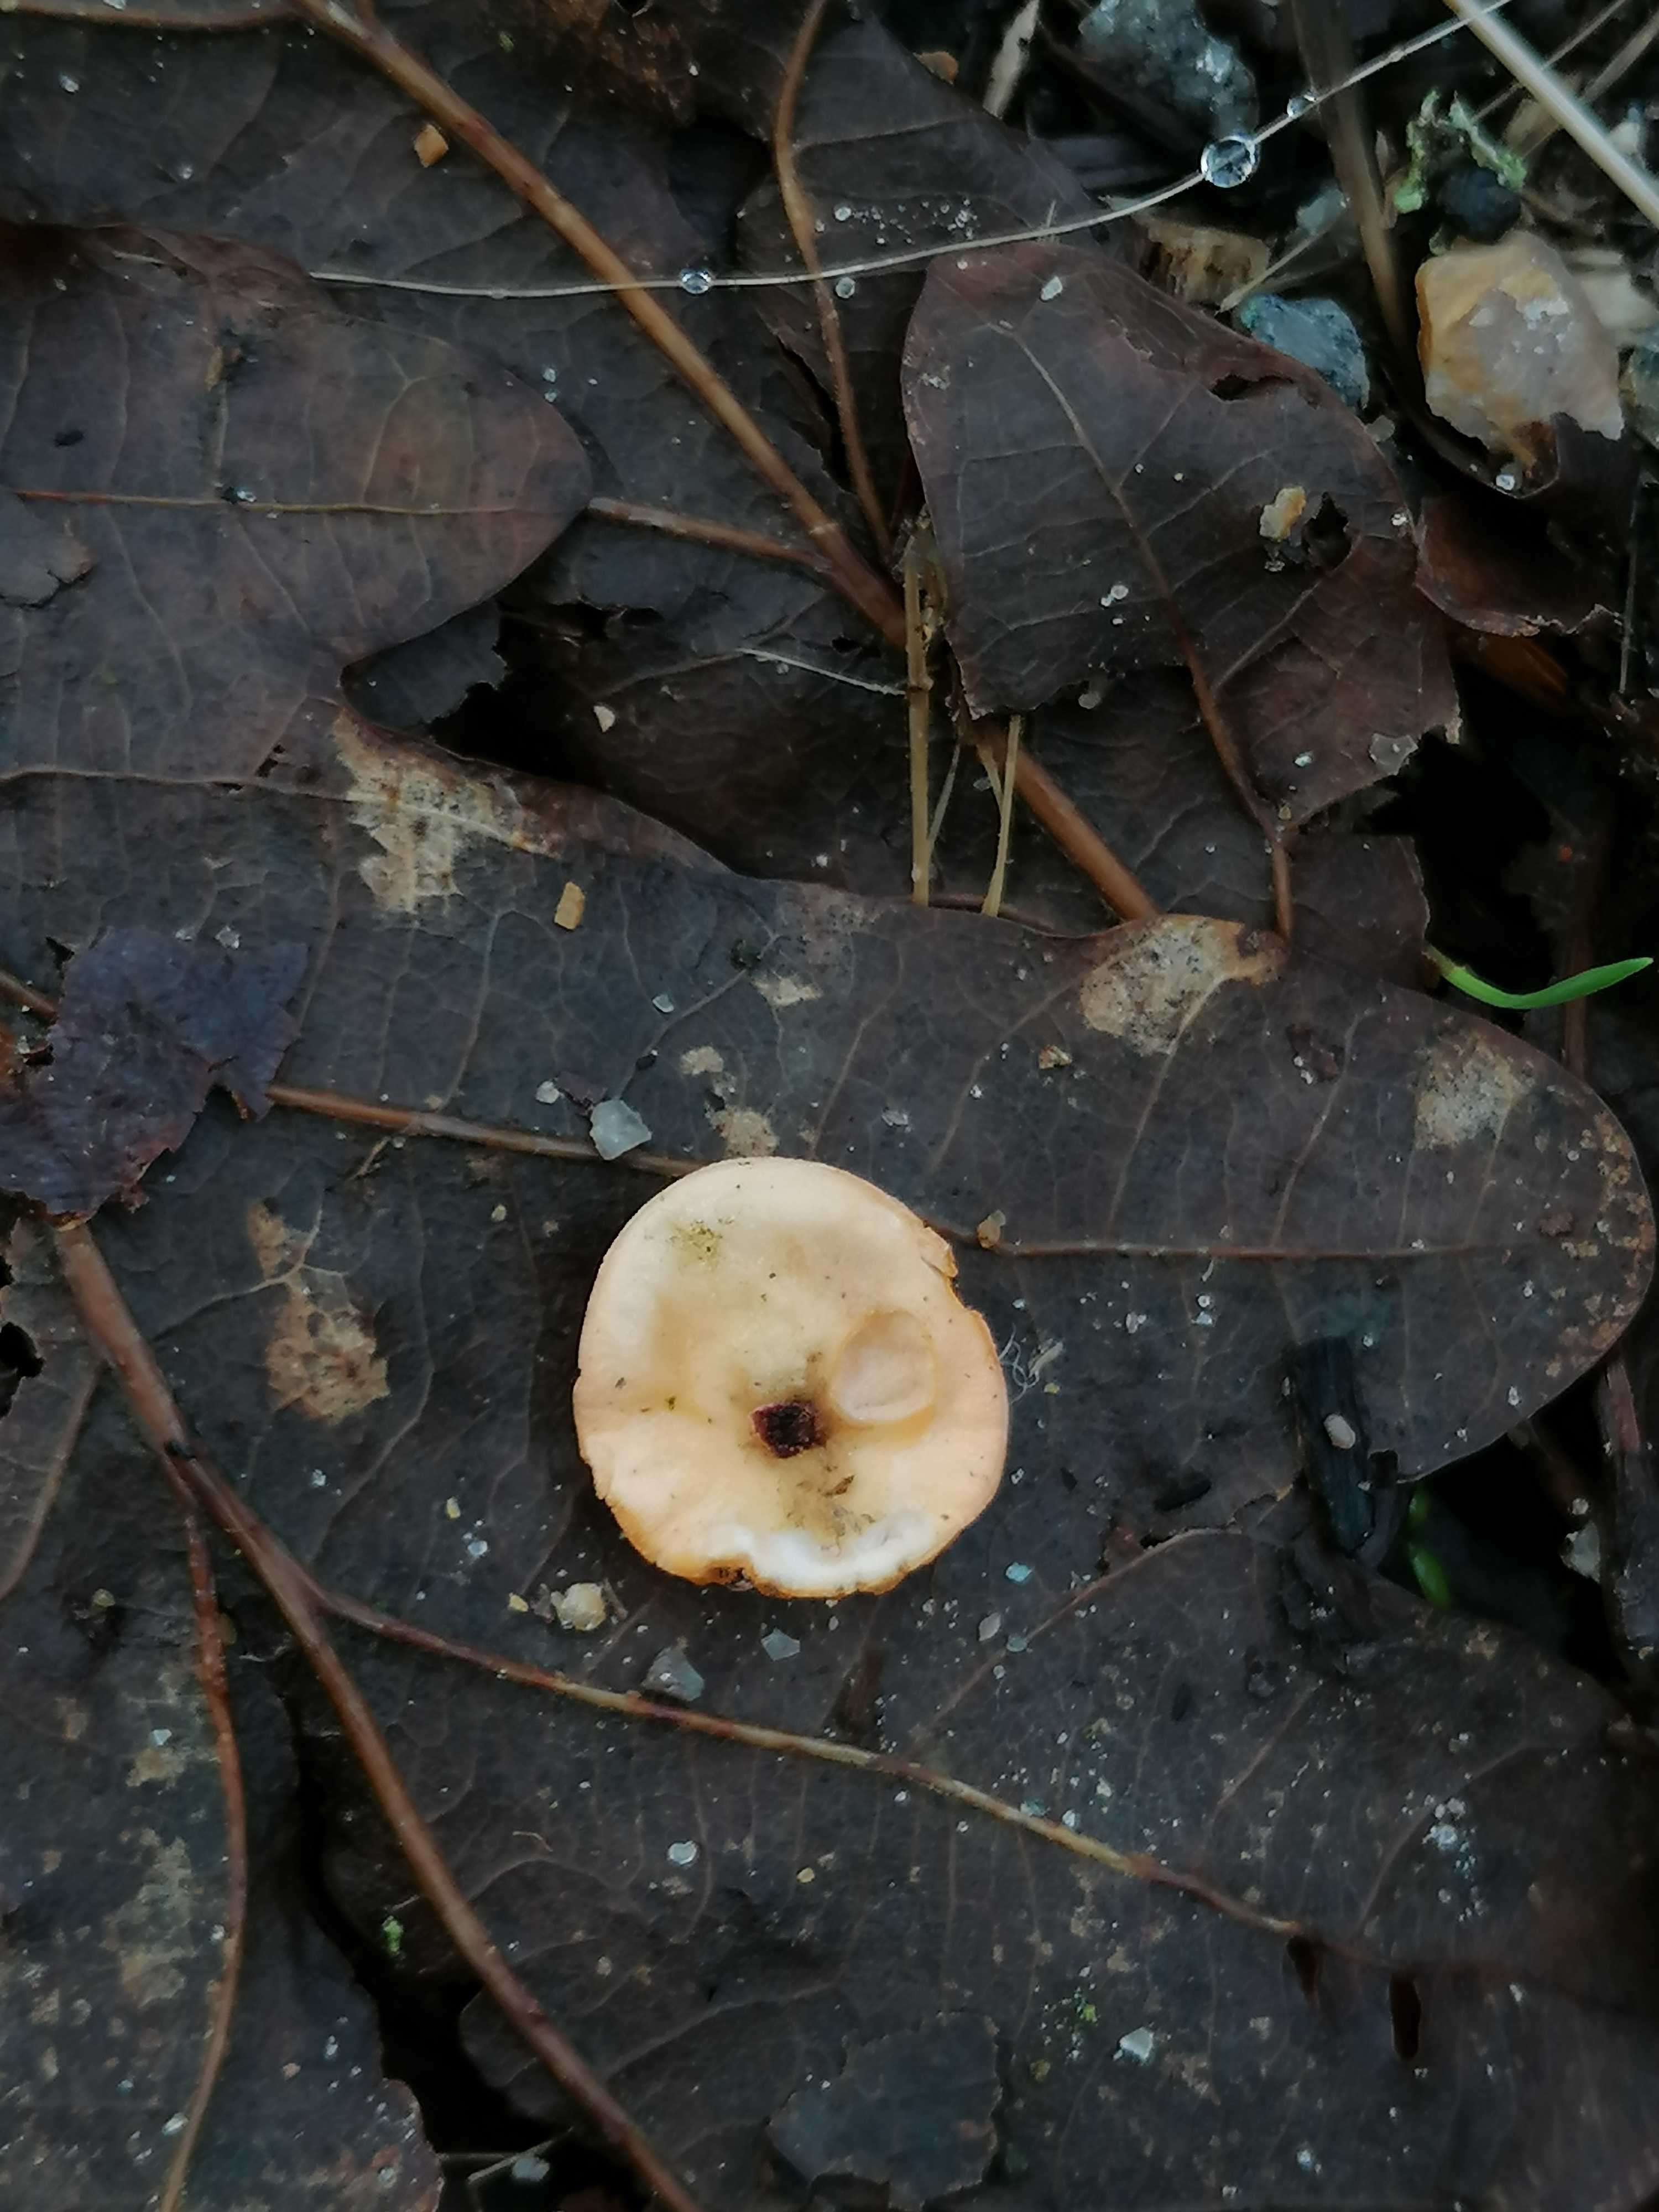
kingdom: Fungi
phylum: Ascomycota
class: Pezizomycetes
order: Pezizales
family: Sarcoscyphaceae
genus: Pithya
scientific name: Pithya vulgaris
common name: stor dukatbæger
